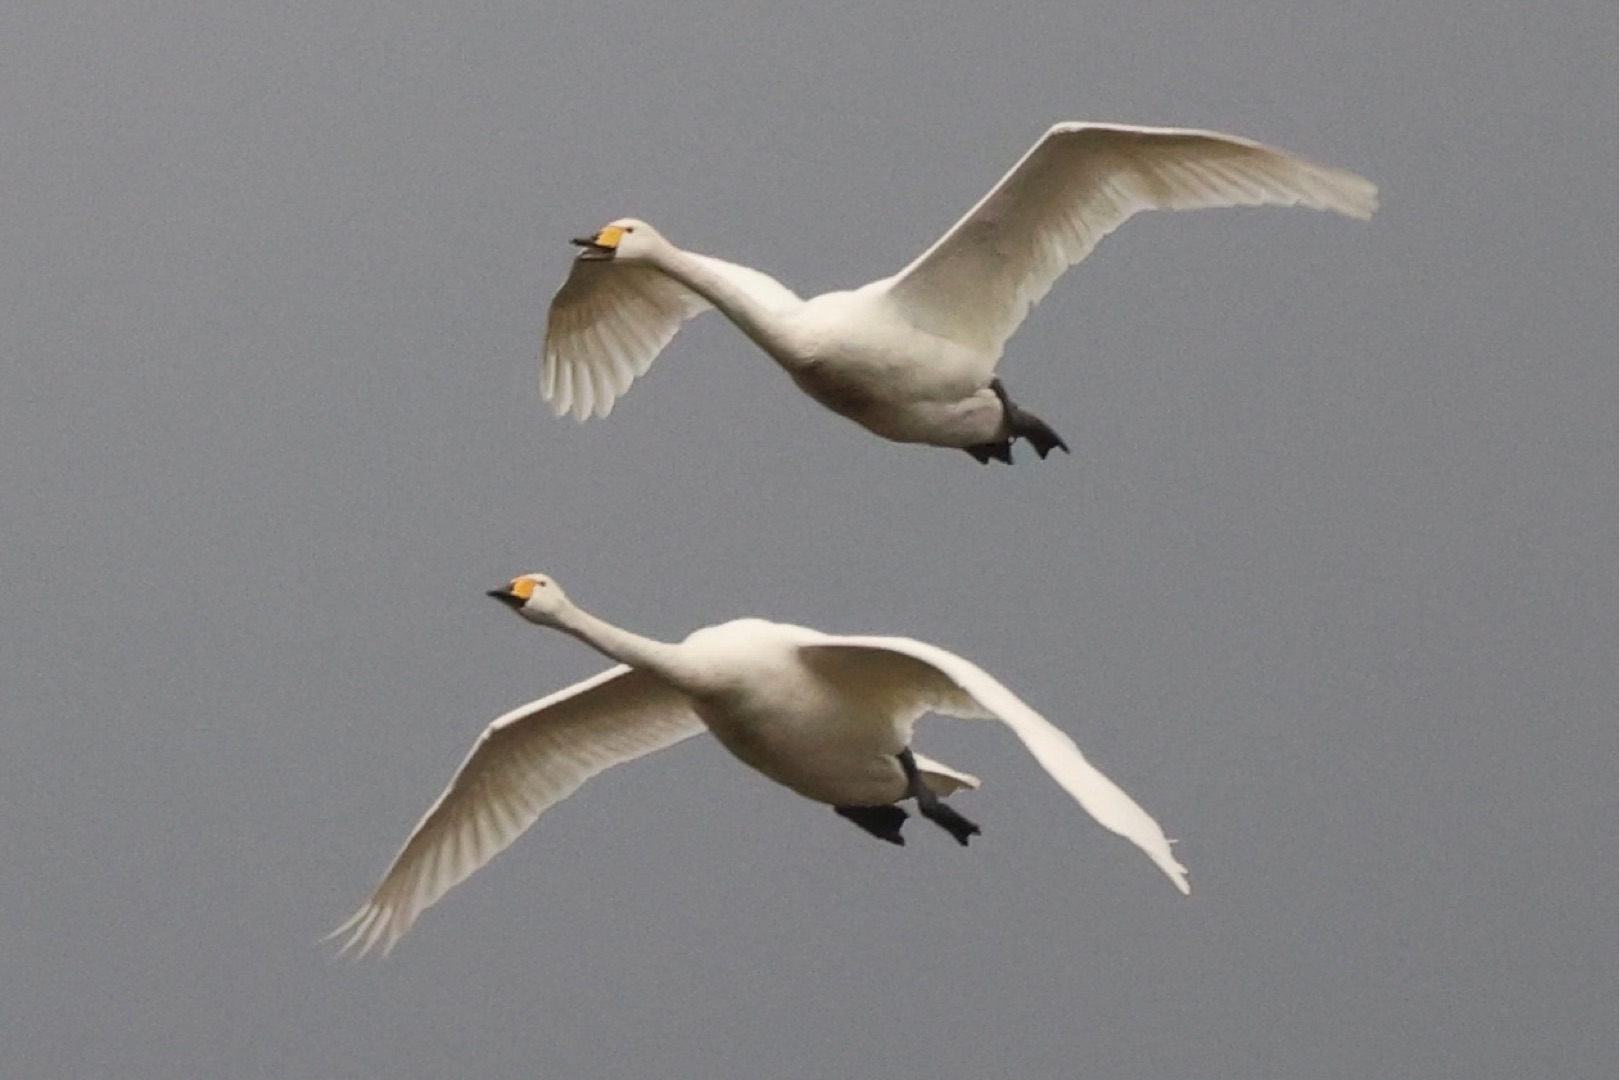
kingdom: Animalia
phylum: Chordata
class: Aves
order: Anseriformes
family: Anatidae
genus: Cygnus
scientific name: Cygnus cygnus
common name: Sangsvane
